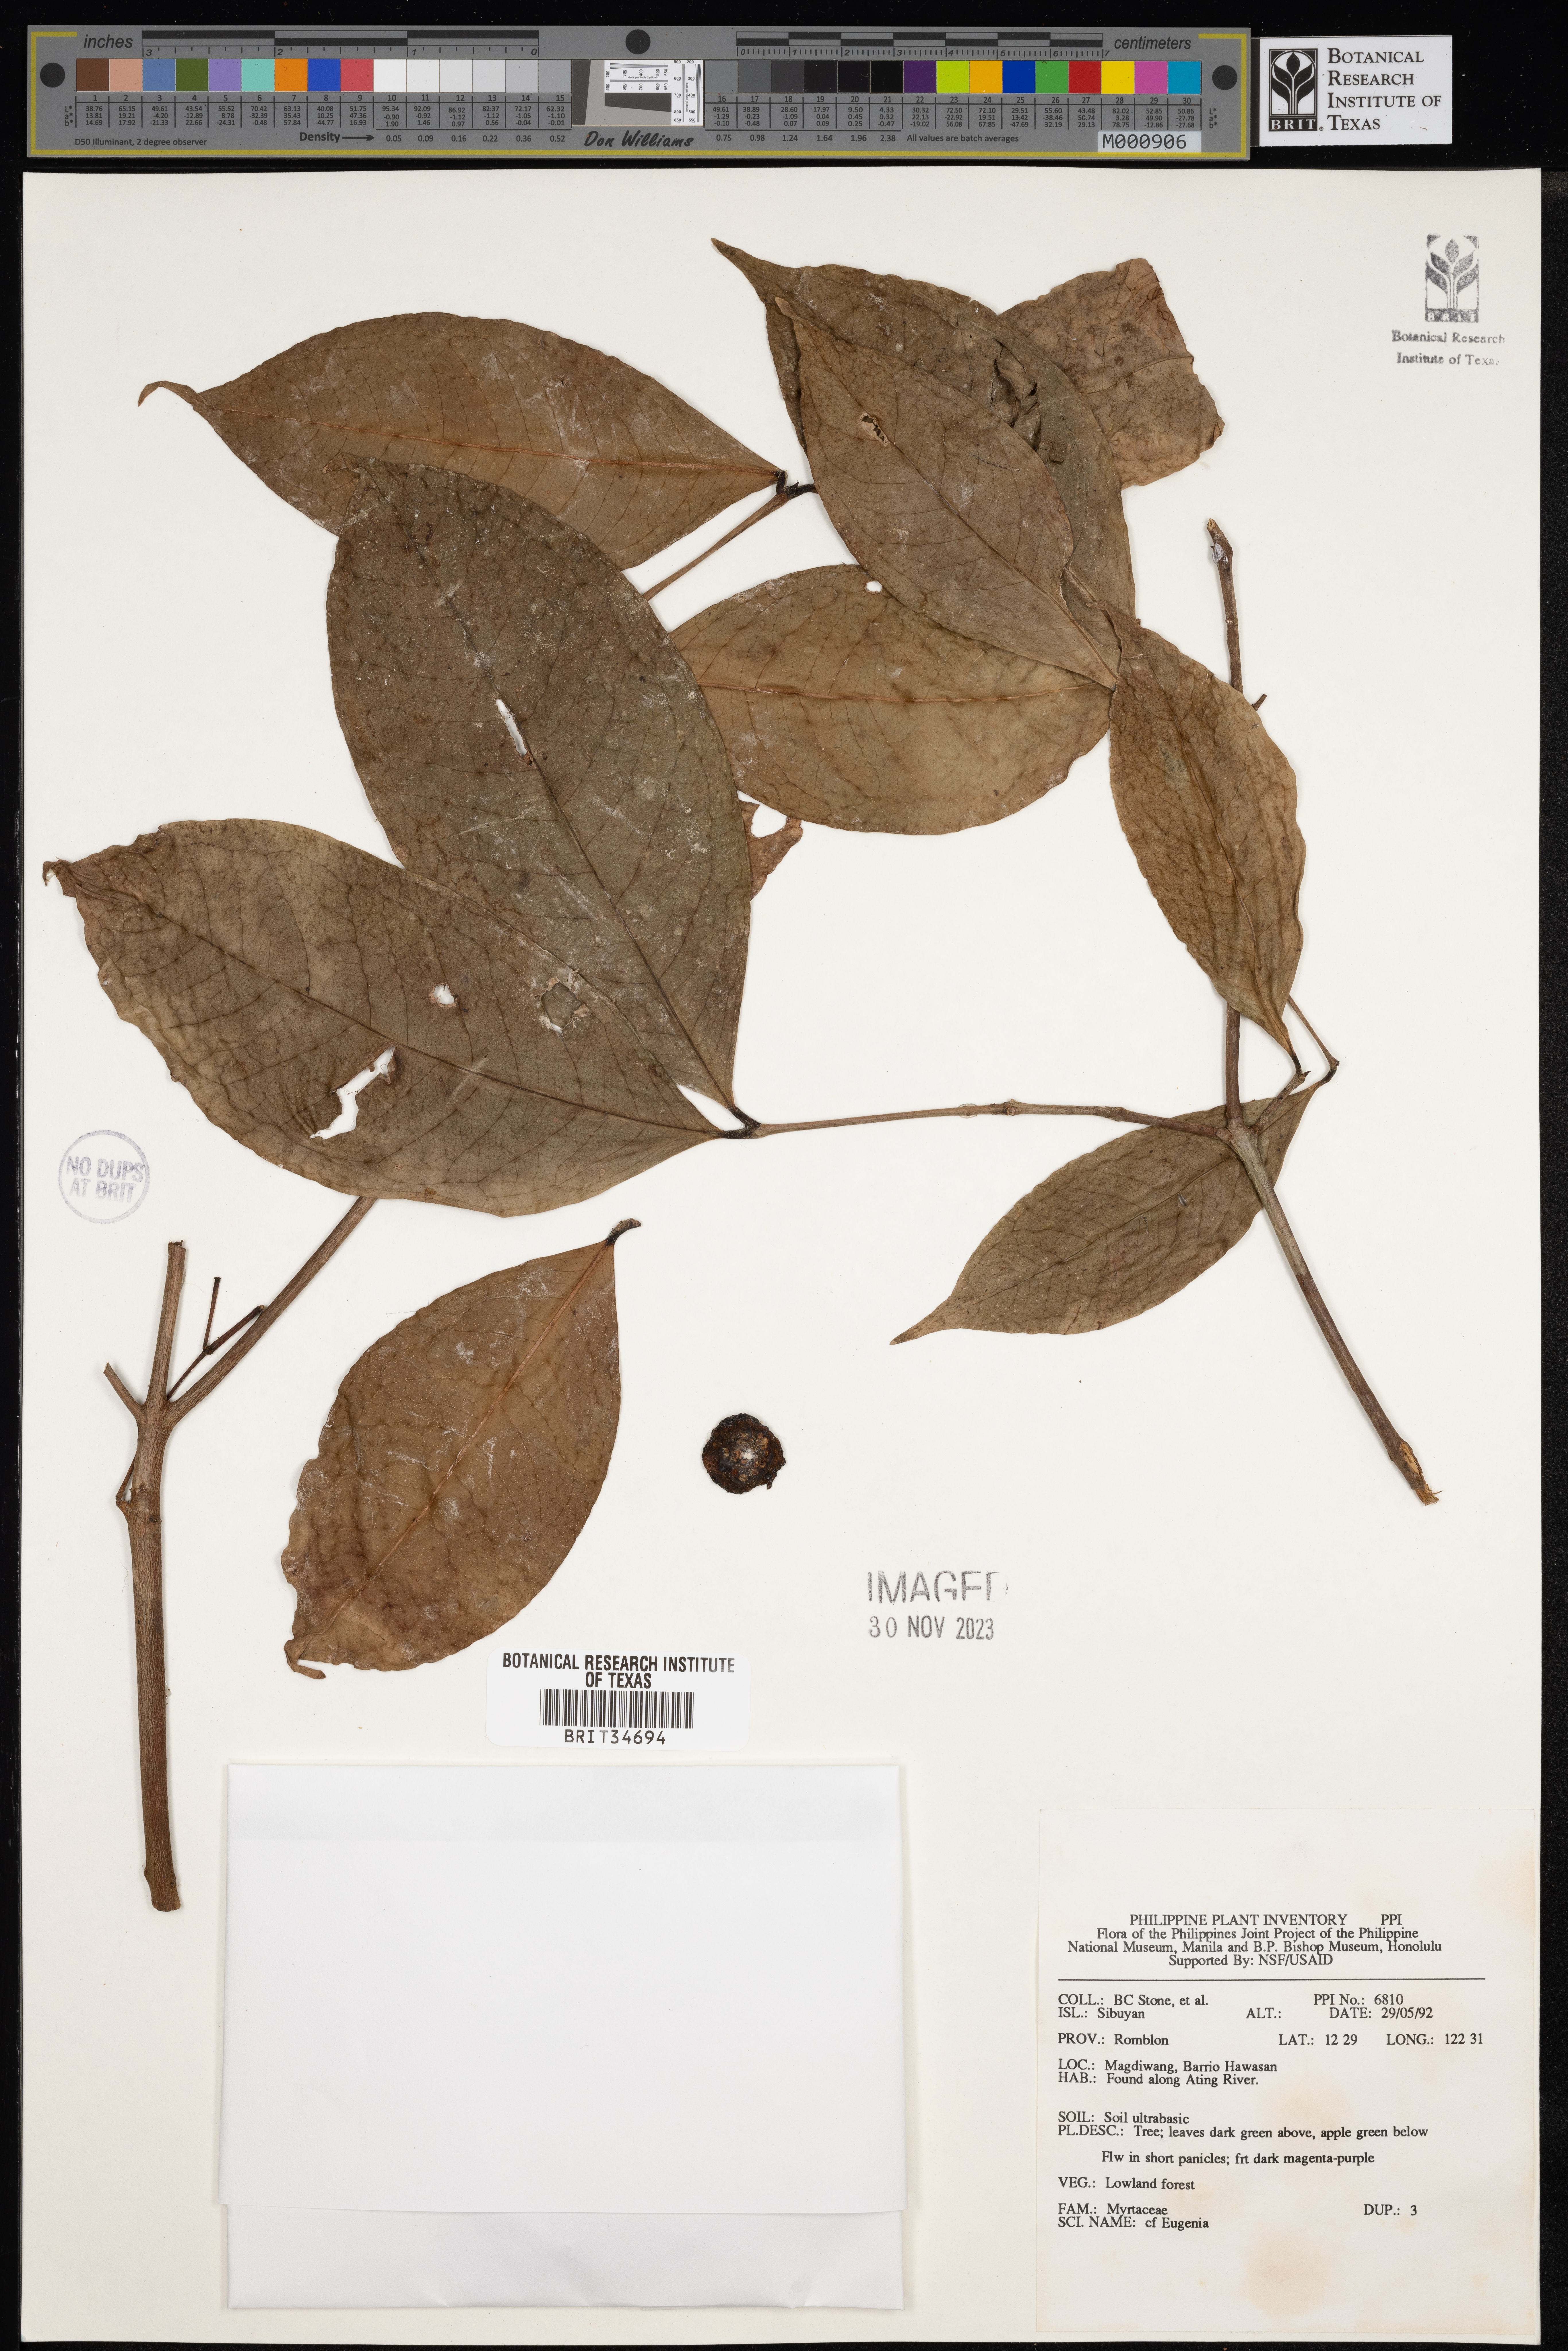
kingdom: Plantae
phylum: Tracheophyta
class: Magnoliopsida
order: Myrtales
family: Myrtaceae
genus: Eugenia
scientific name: Eugenia
